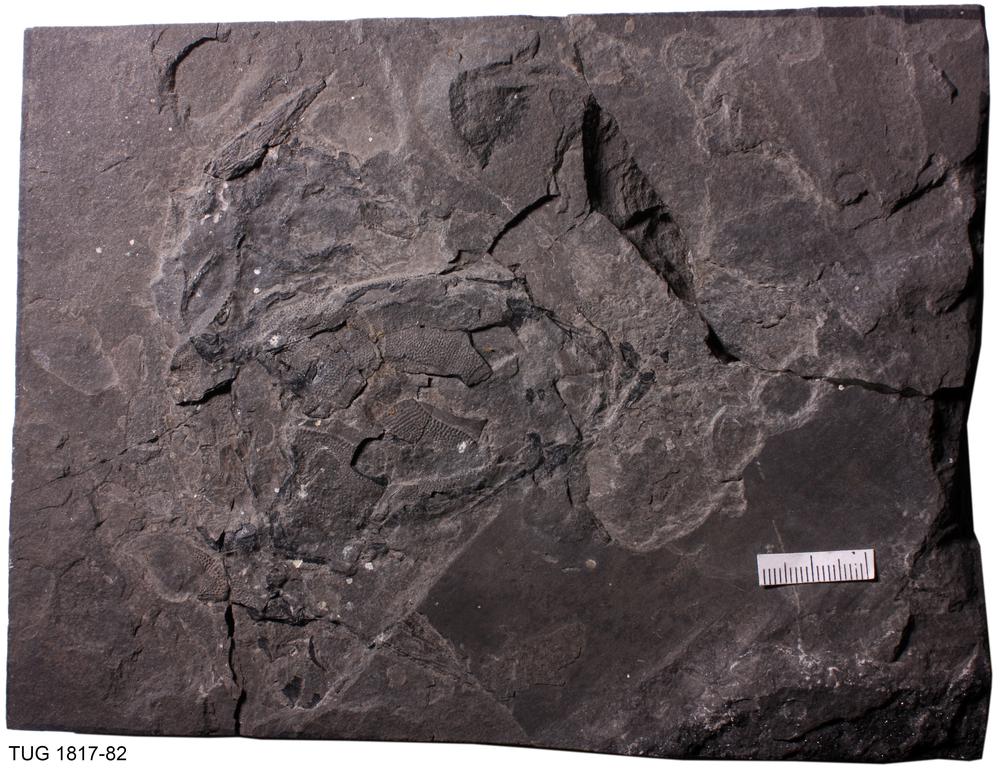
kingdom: Animalia
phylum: Chordata
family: Asterolepididae
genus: Pterichthyodes
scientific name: Pterichthyodes Pterichthys milleri
